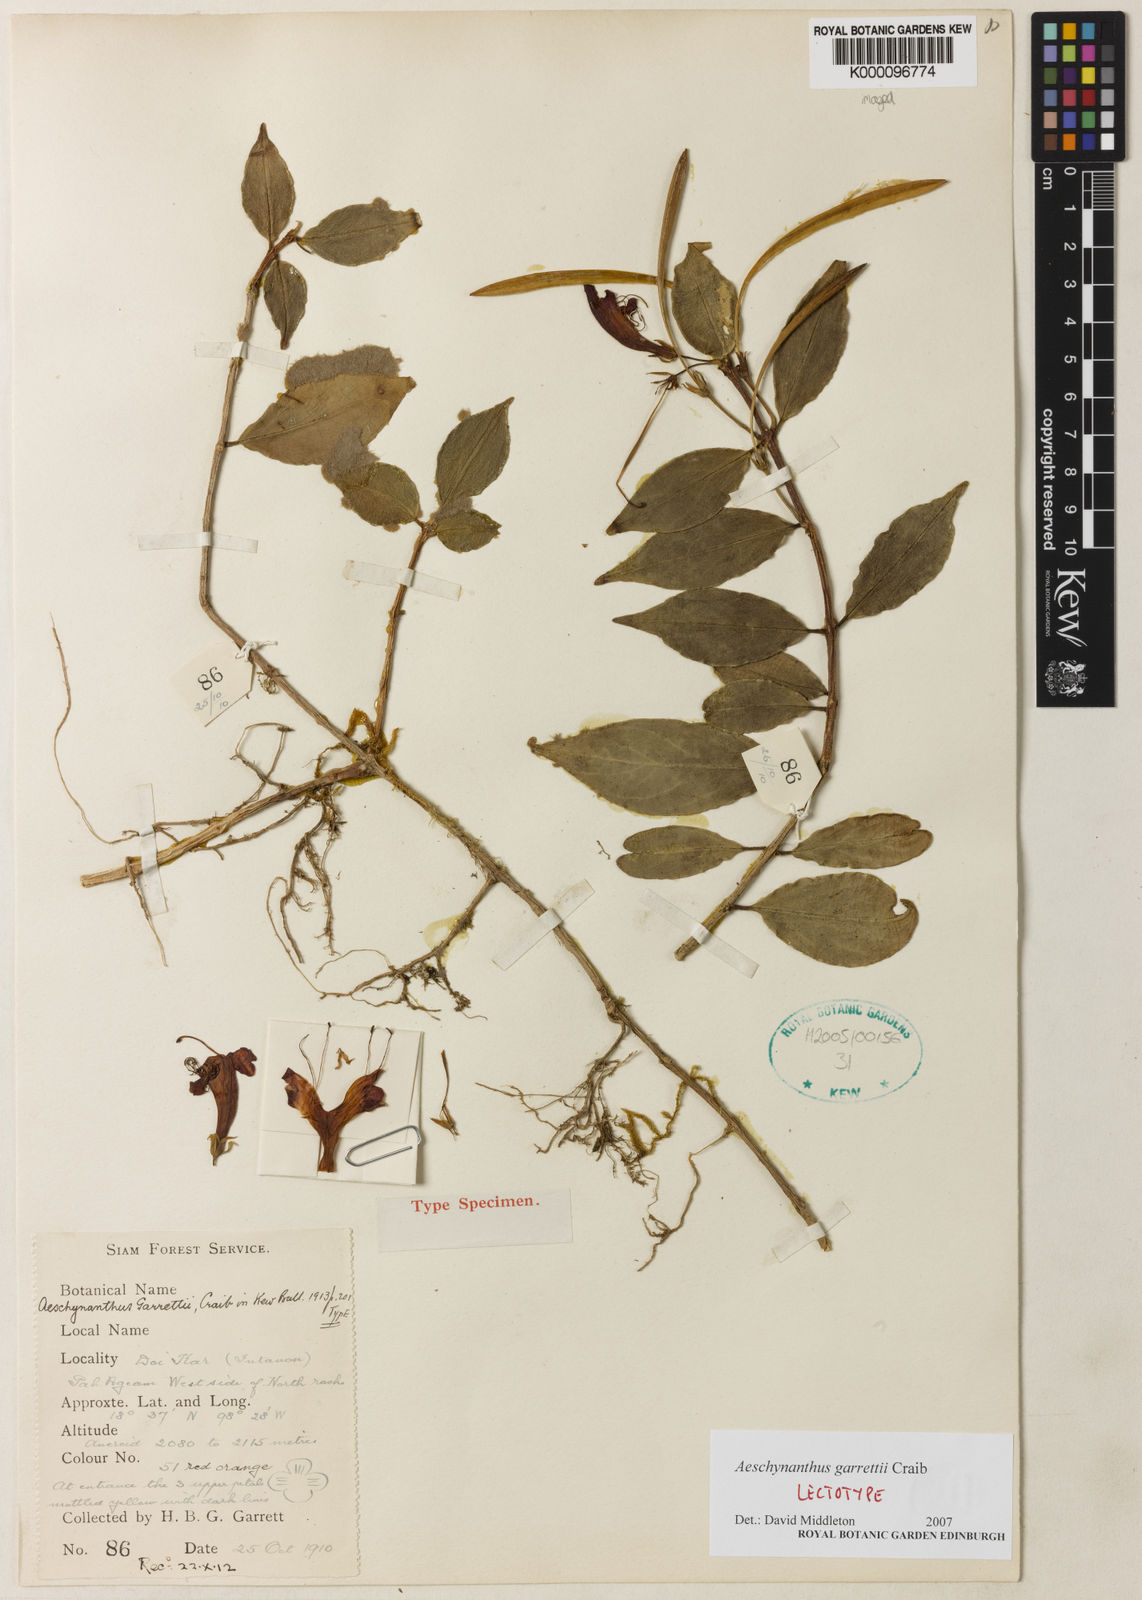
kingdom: Plantae
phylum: Tracheophyta
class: Magnoliopsida
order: Lamiales
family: Gesneriaceae
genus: Aeschynanthus
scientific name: Aeschynanthus garrettii
